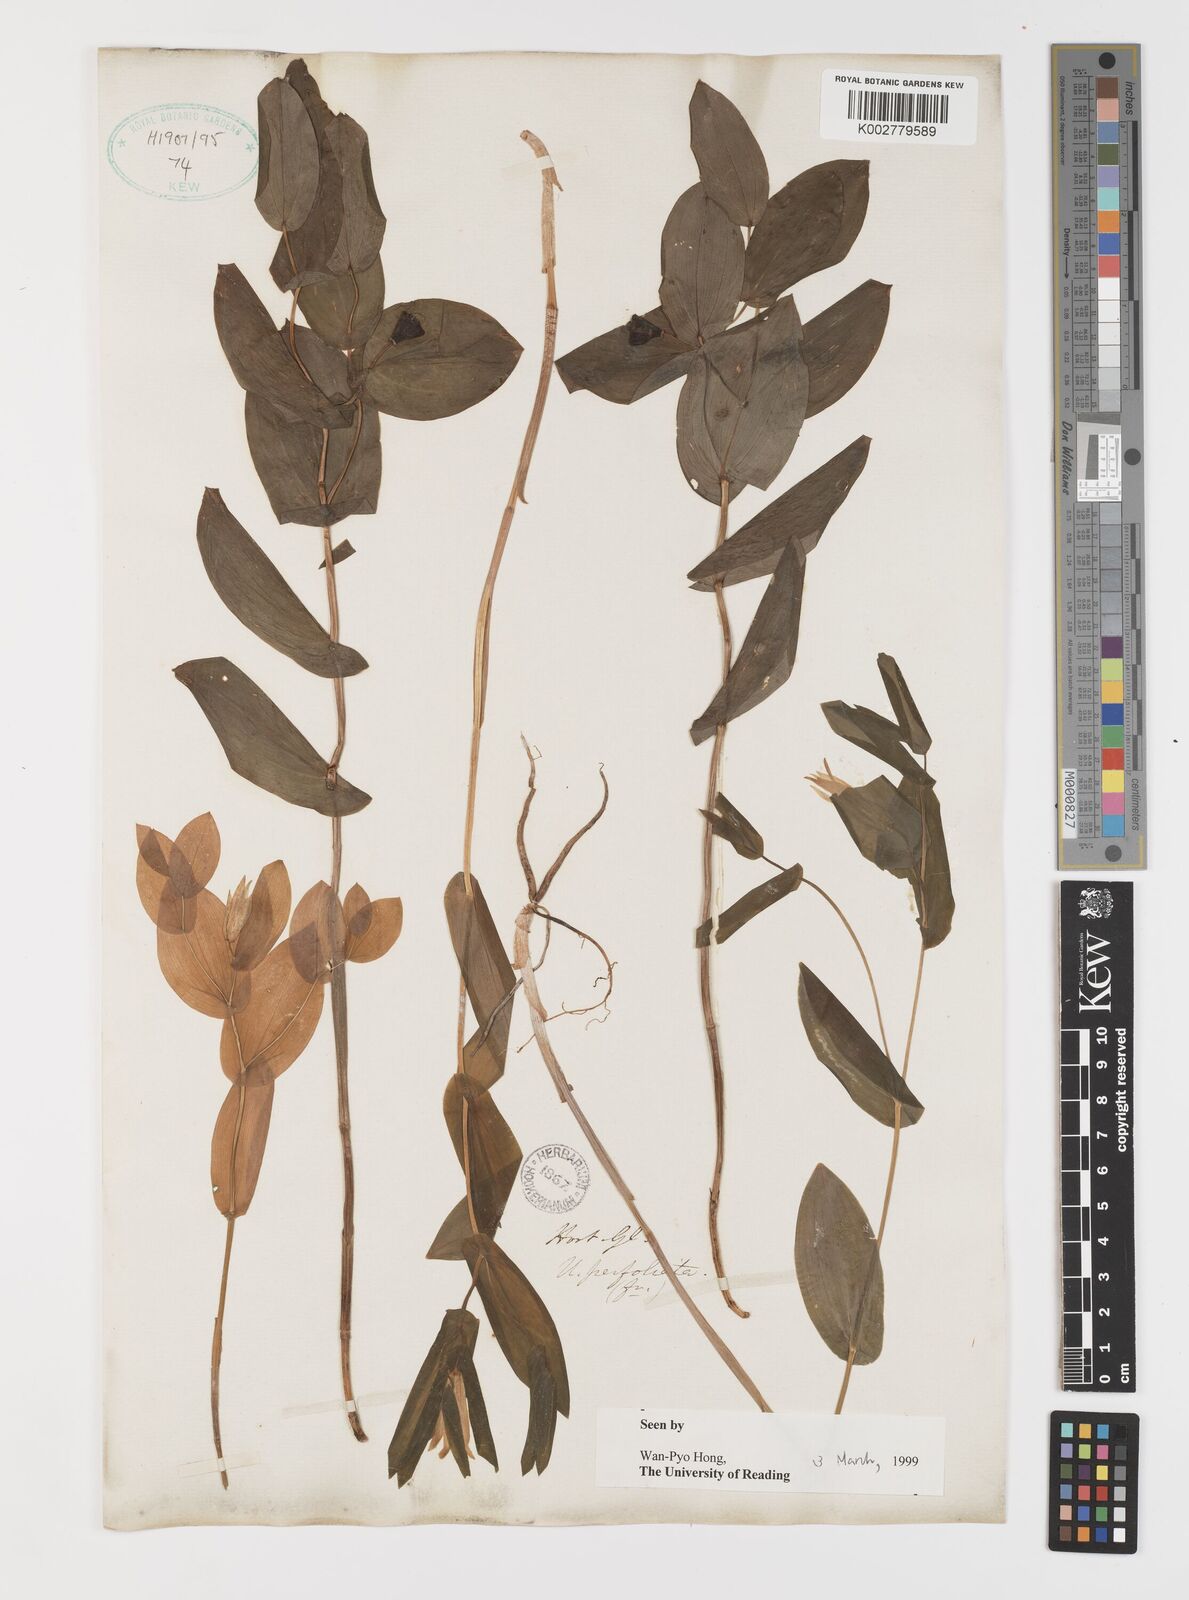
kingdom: Plantae
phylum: Tracheophyta
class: Liliopsida
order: Liliales
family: Colchicaceae
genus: Uvularia
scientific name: Uvularia perfoliata
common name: Perfoliate bellwort
